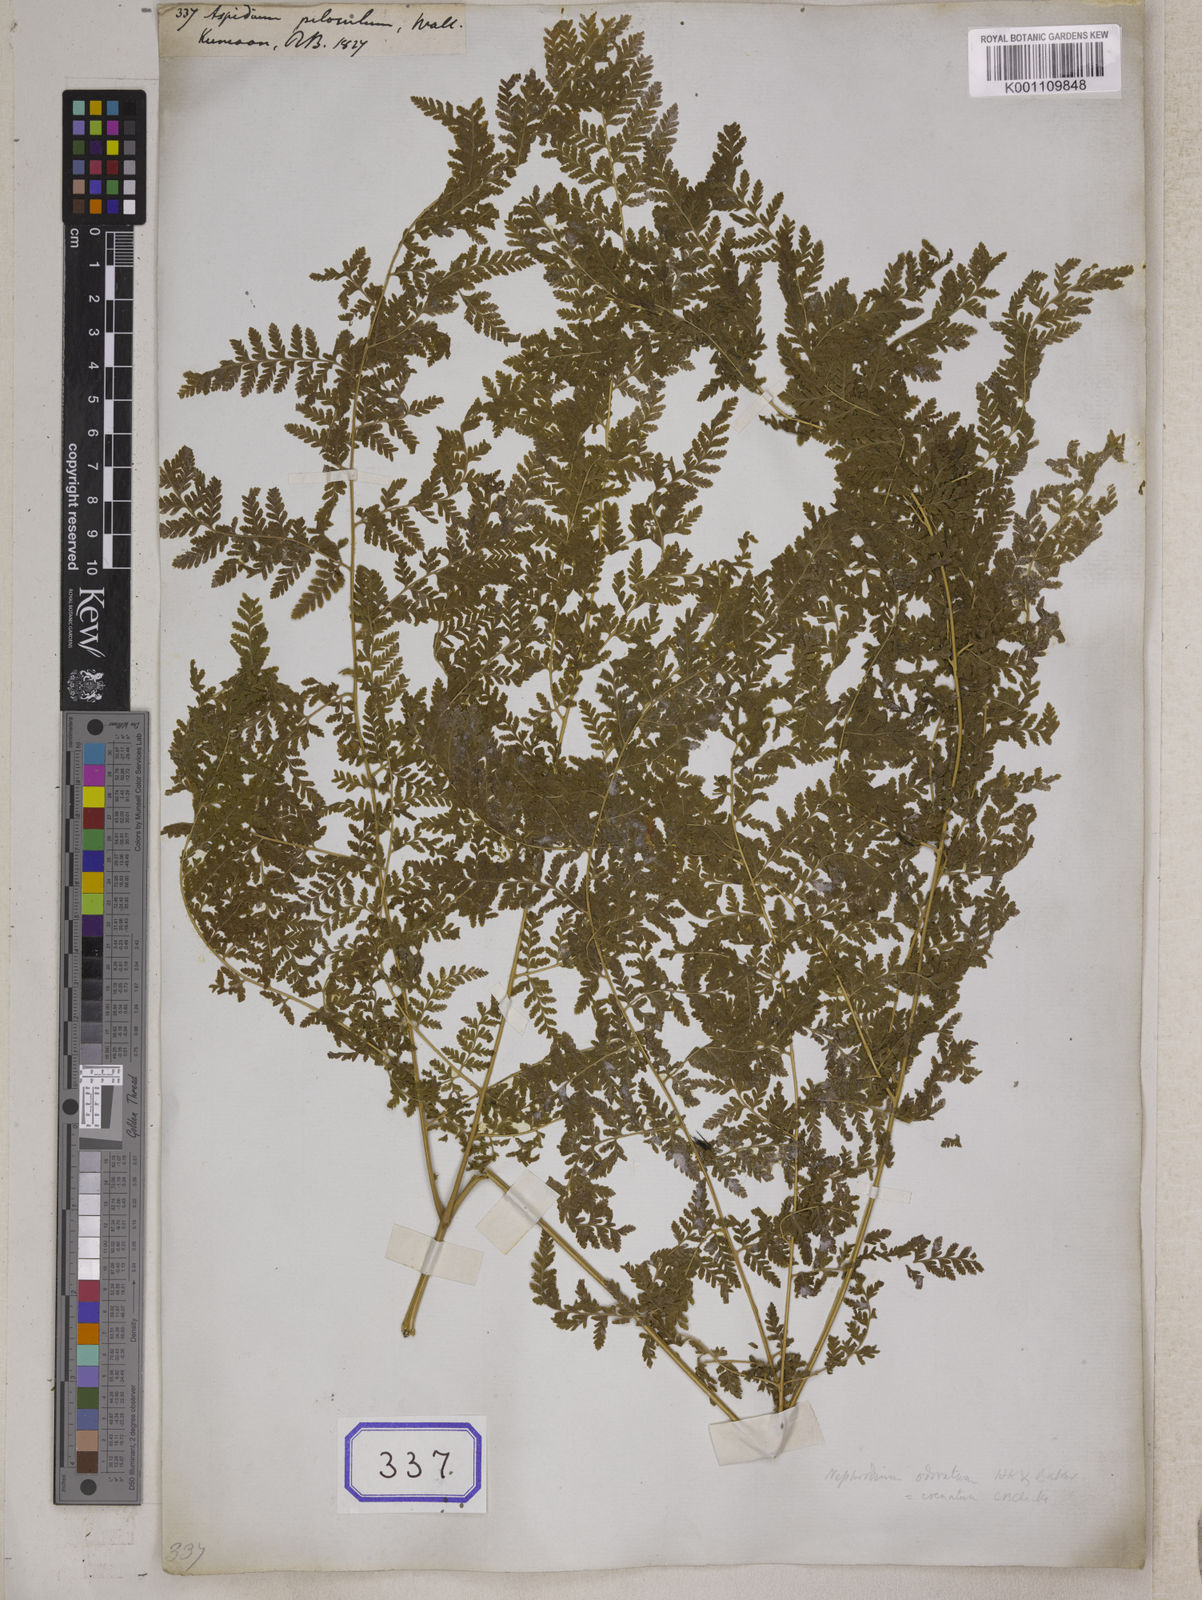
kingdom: Plantae
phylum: Tracheophyta
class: Polypodiopsida
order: Polypodiales
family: Hypodematiaceae
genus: Hypodematium
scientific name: Hypodematium shingii
